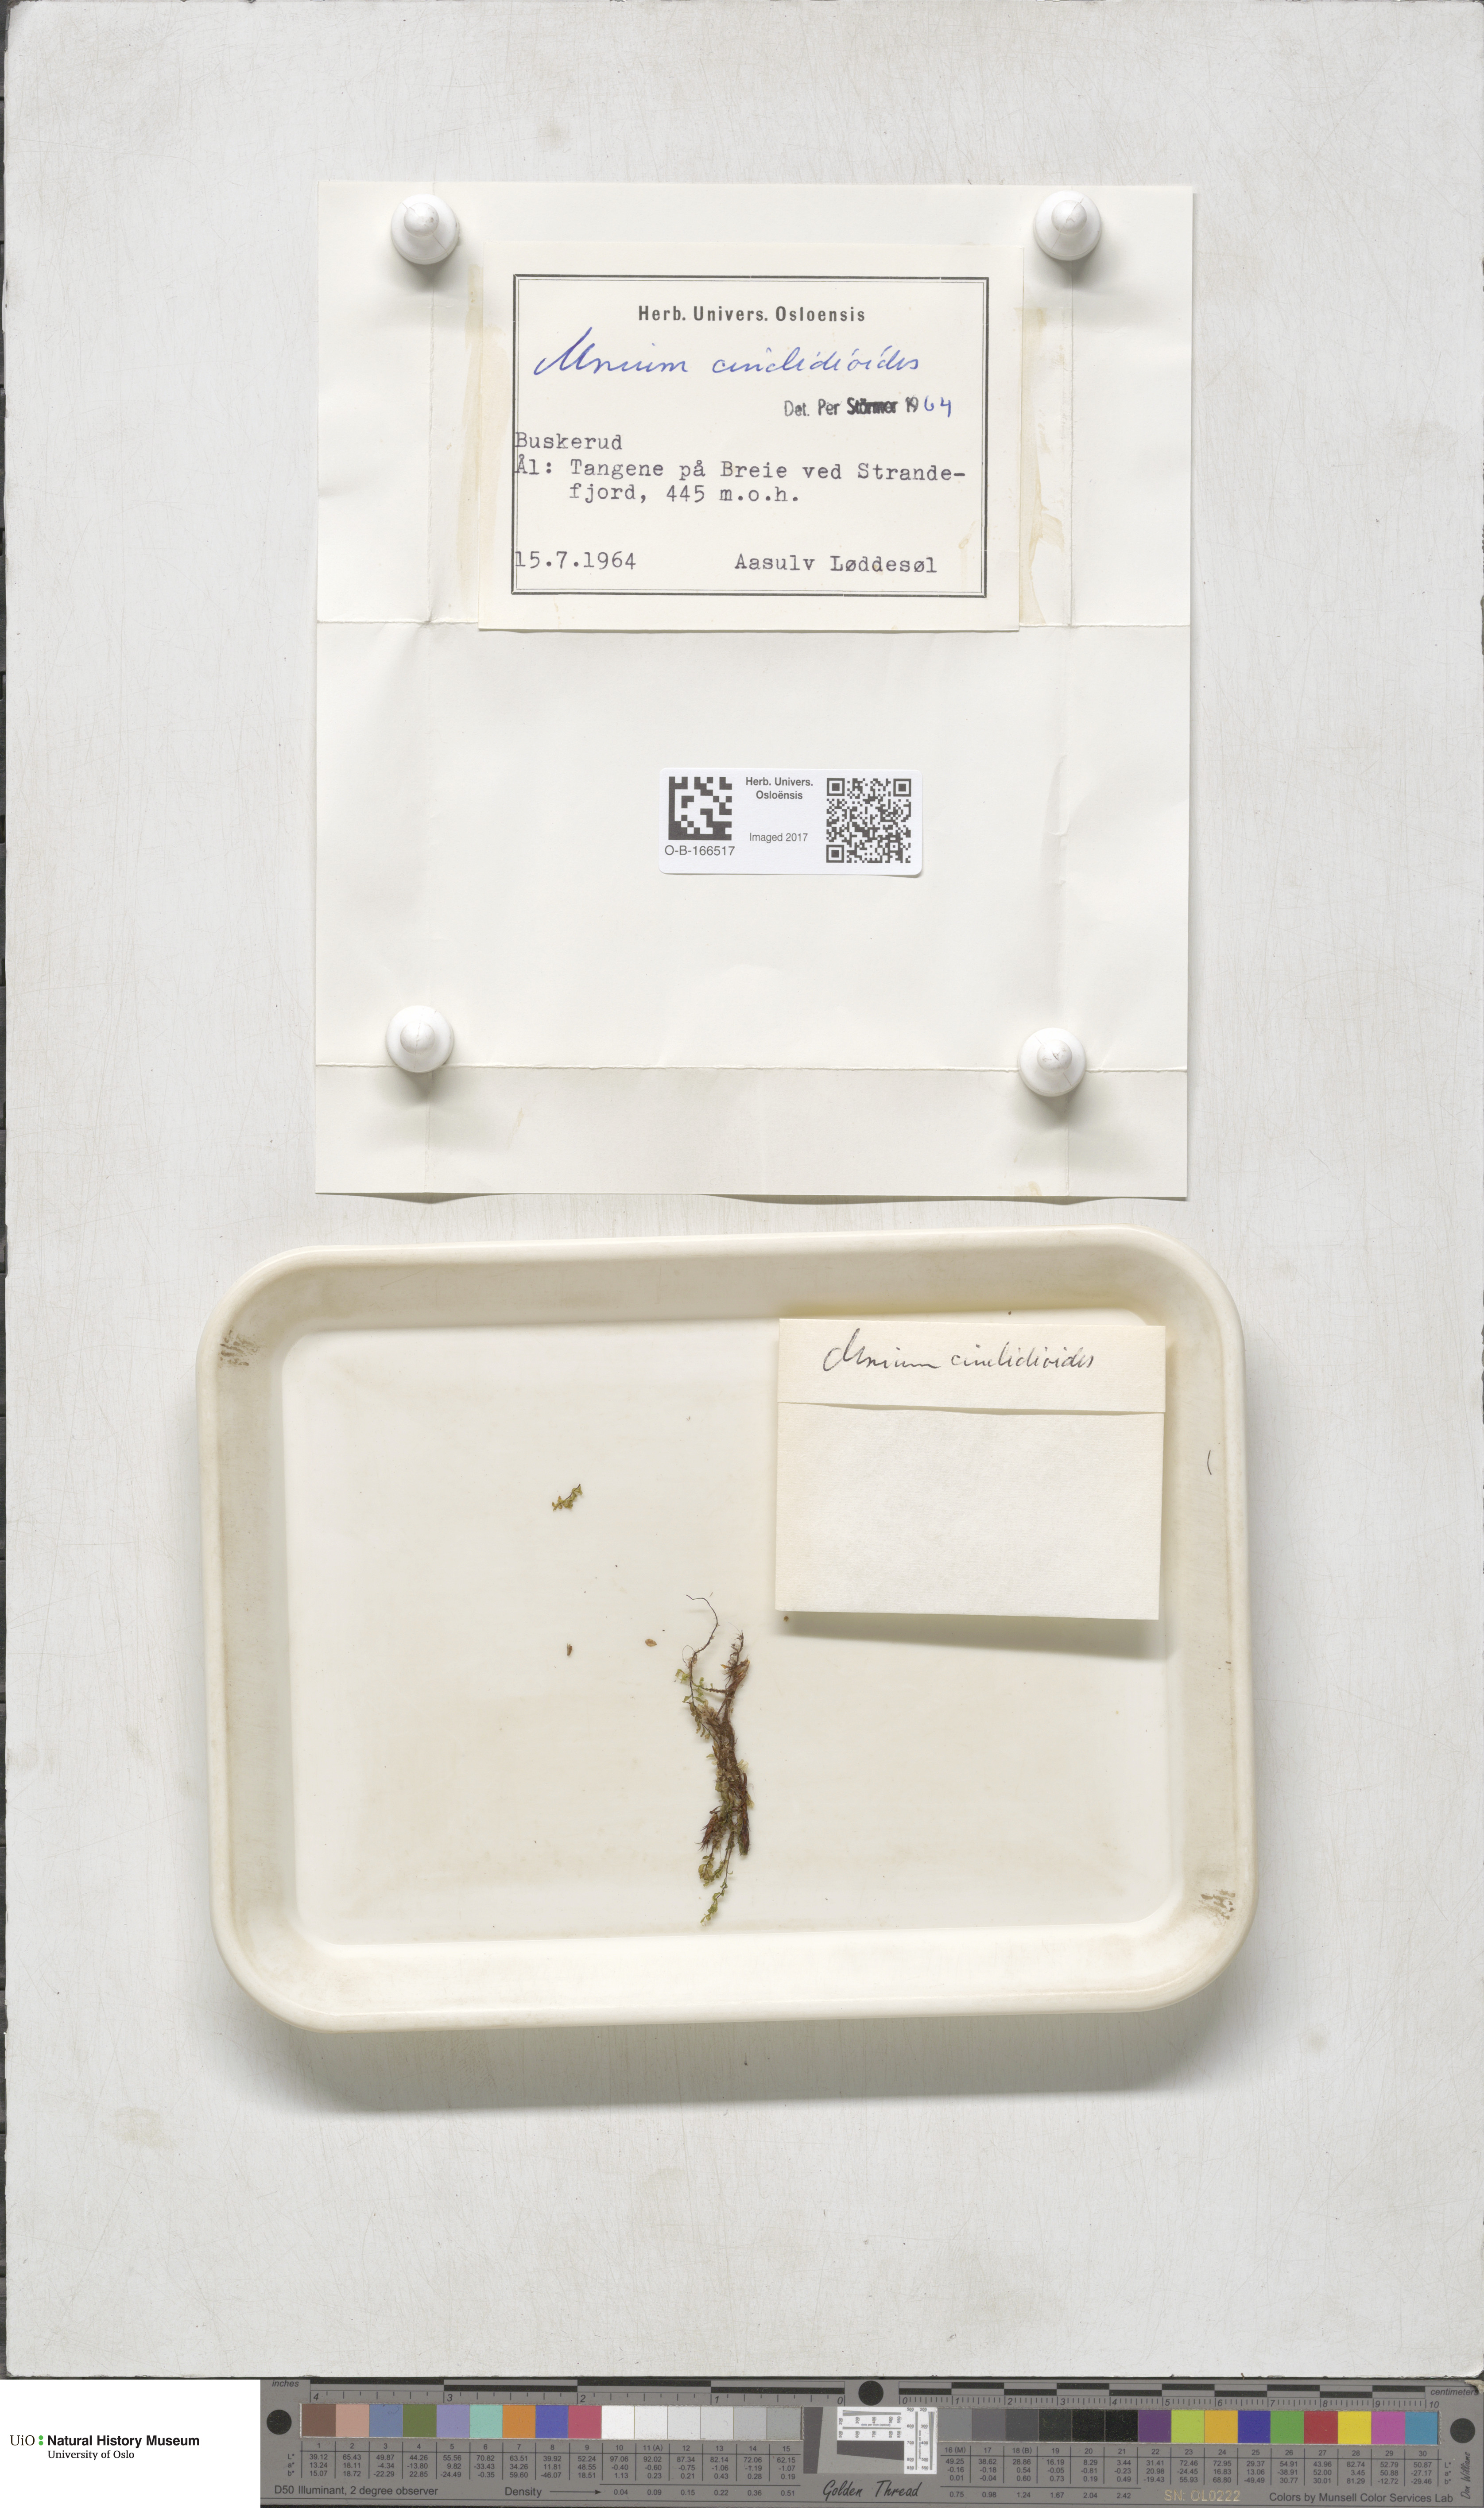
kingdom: Plantae
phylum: Bryophyta
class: Bryopsida
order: Bryales
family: Mniaceae
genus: Pseudobryum
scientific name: Pseudobryum cinclidioides
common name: River thyme moss
